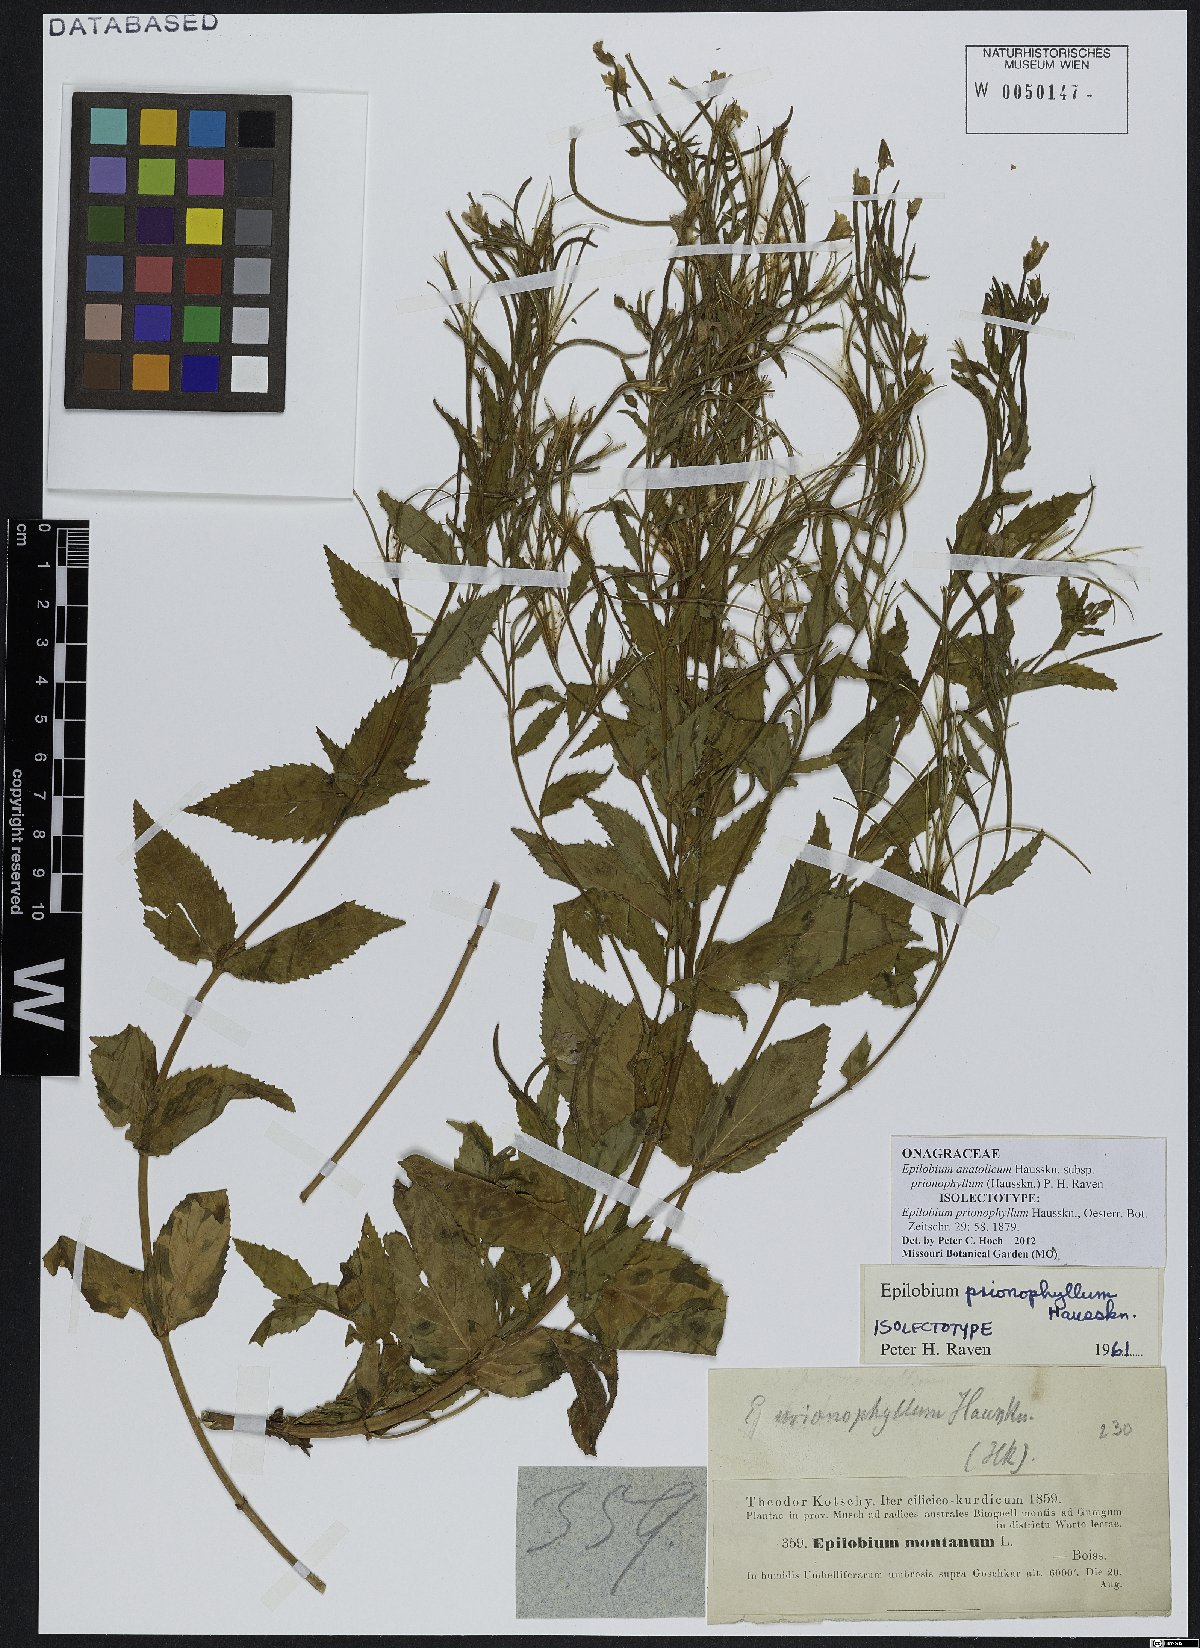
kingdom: Plantae
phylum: Tracheophyta
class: Magnoliopsida
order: Myrtales
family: Onagraceae
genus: Epilobium
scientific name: Epilobium anatolicum
